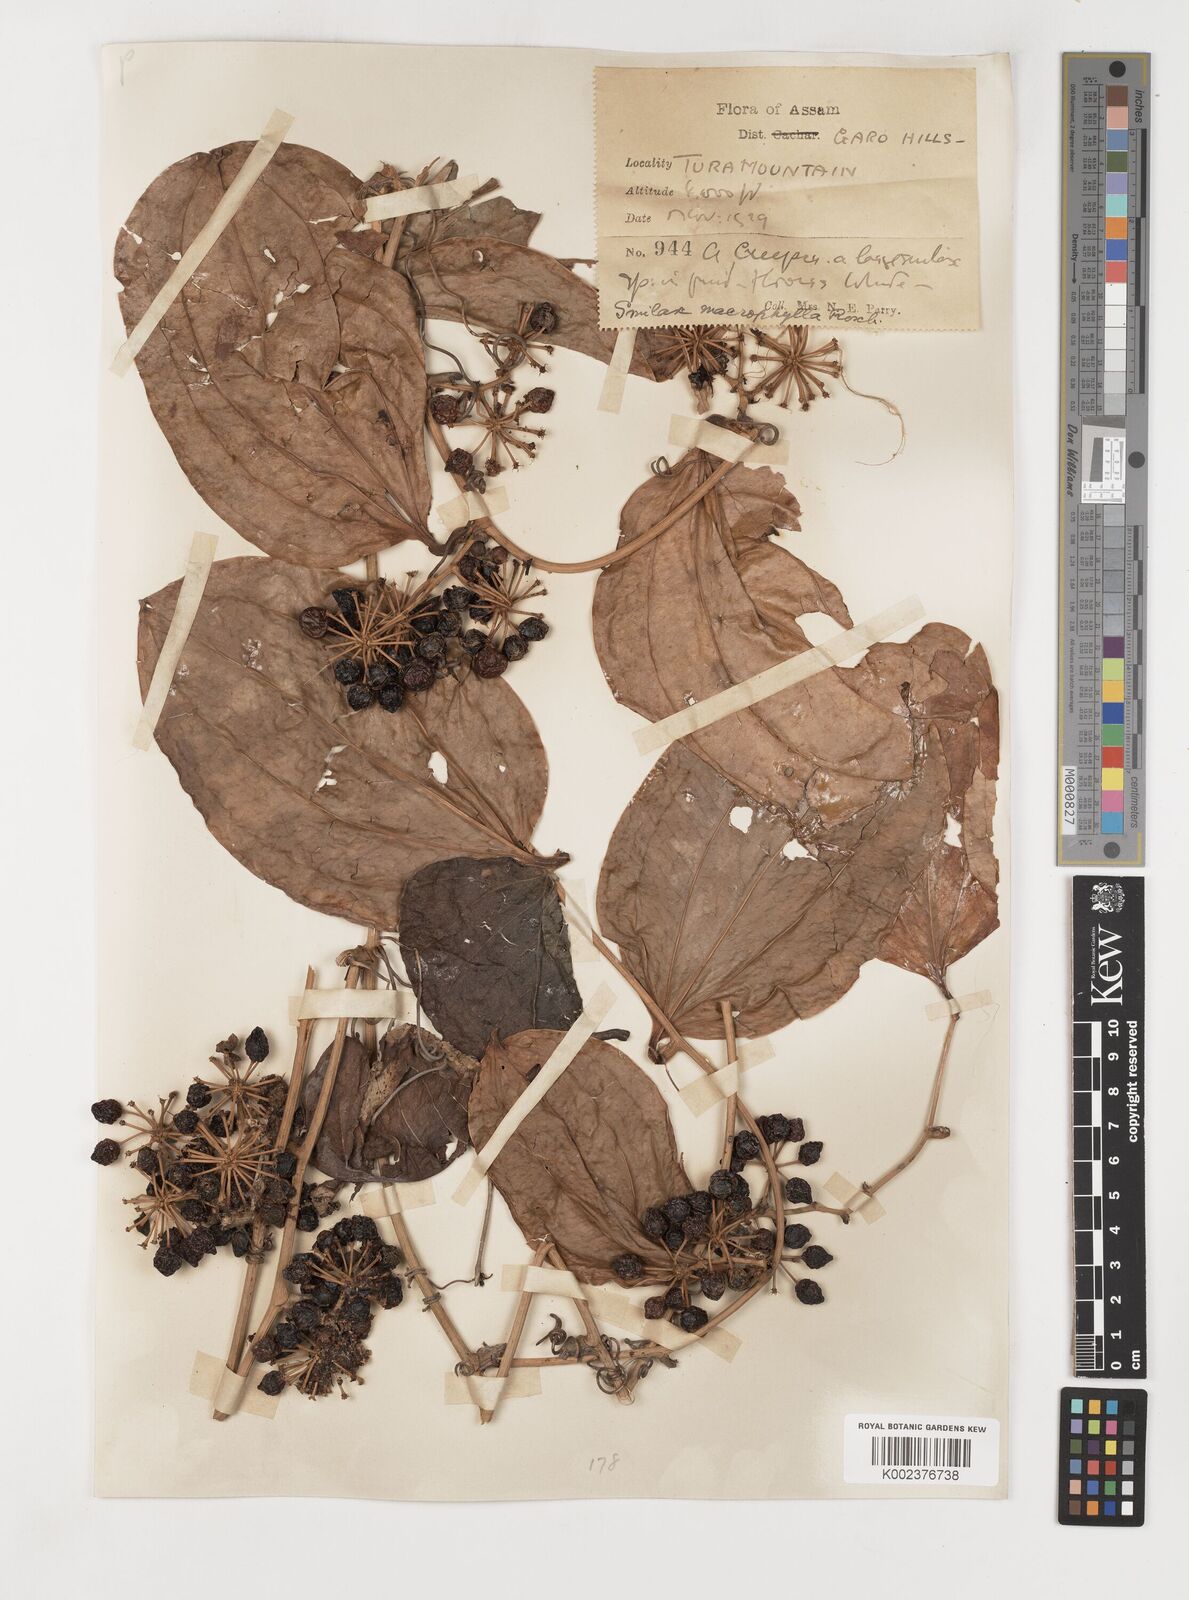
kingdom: Plantae
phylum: Tracheophyta
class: Liliopsida
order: Liliales
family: Smilacaceae
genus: Smilax
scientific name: Smilax ovalifolia
